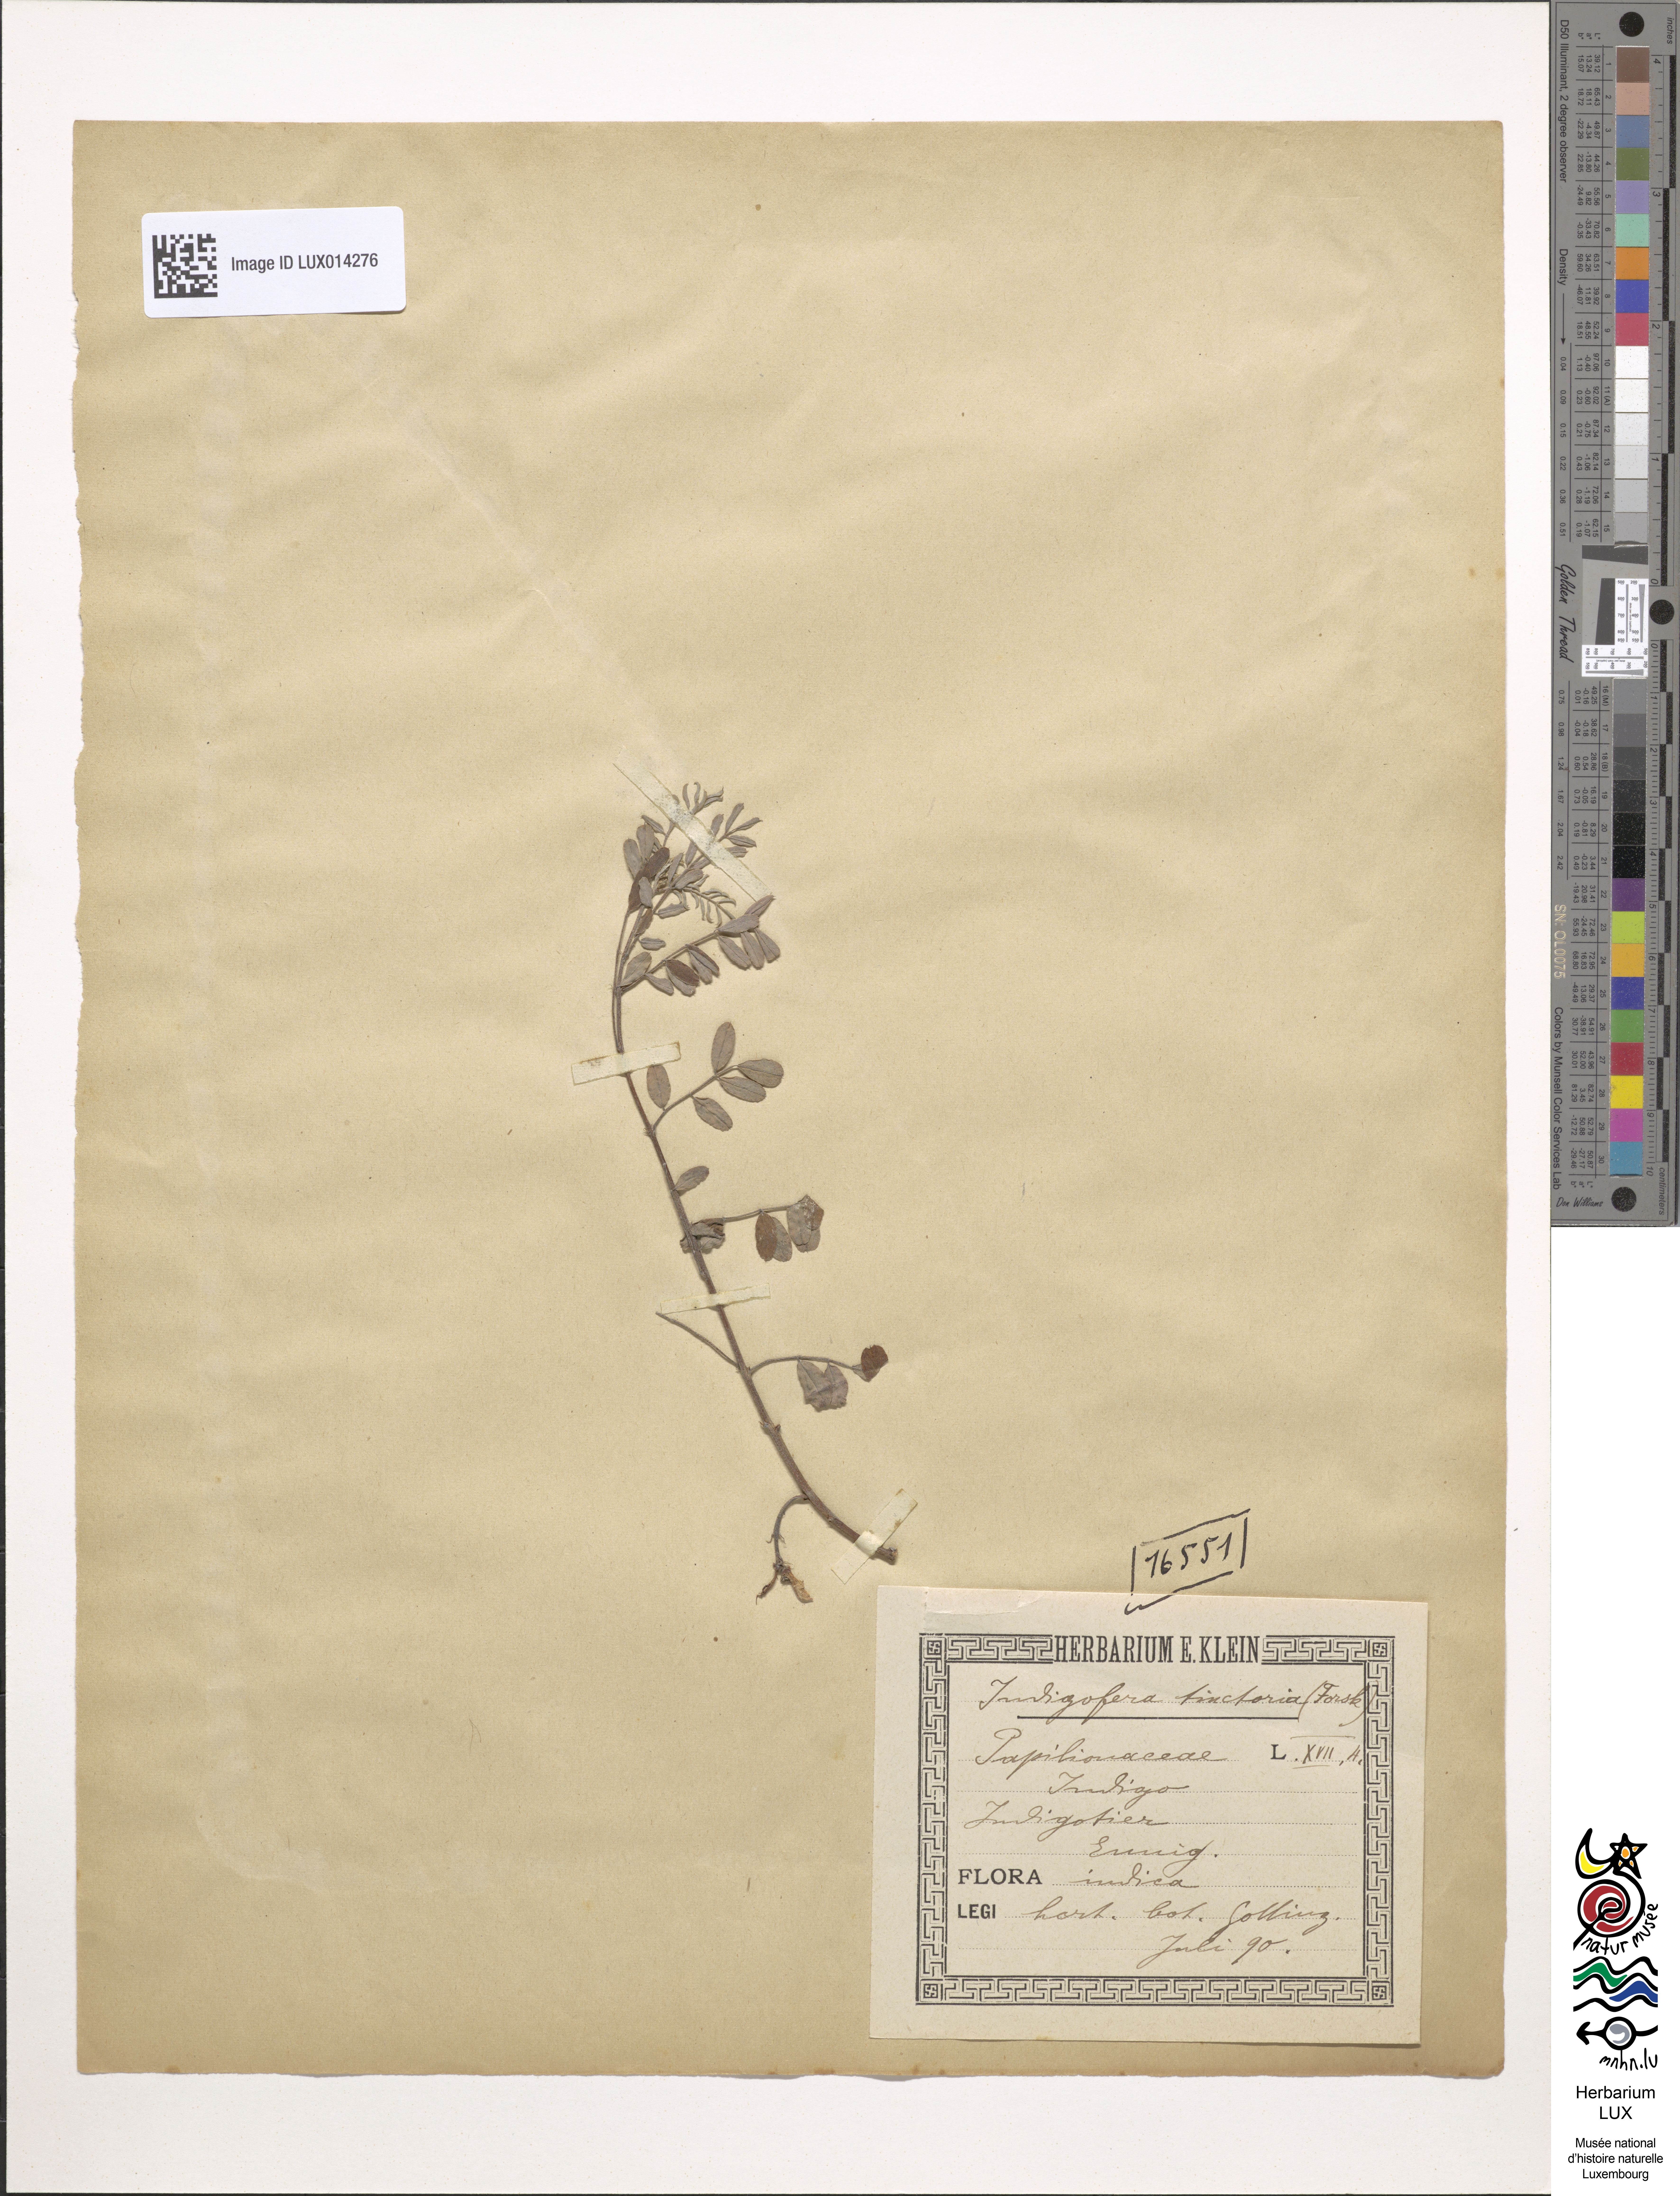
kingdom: Plantae
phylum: Tracheophyta
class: Magnoliopsida
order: Fabales
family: Fabaceae
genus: Indigofera
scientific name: Indigofera tinctoria
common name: True indigo
